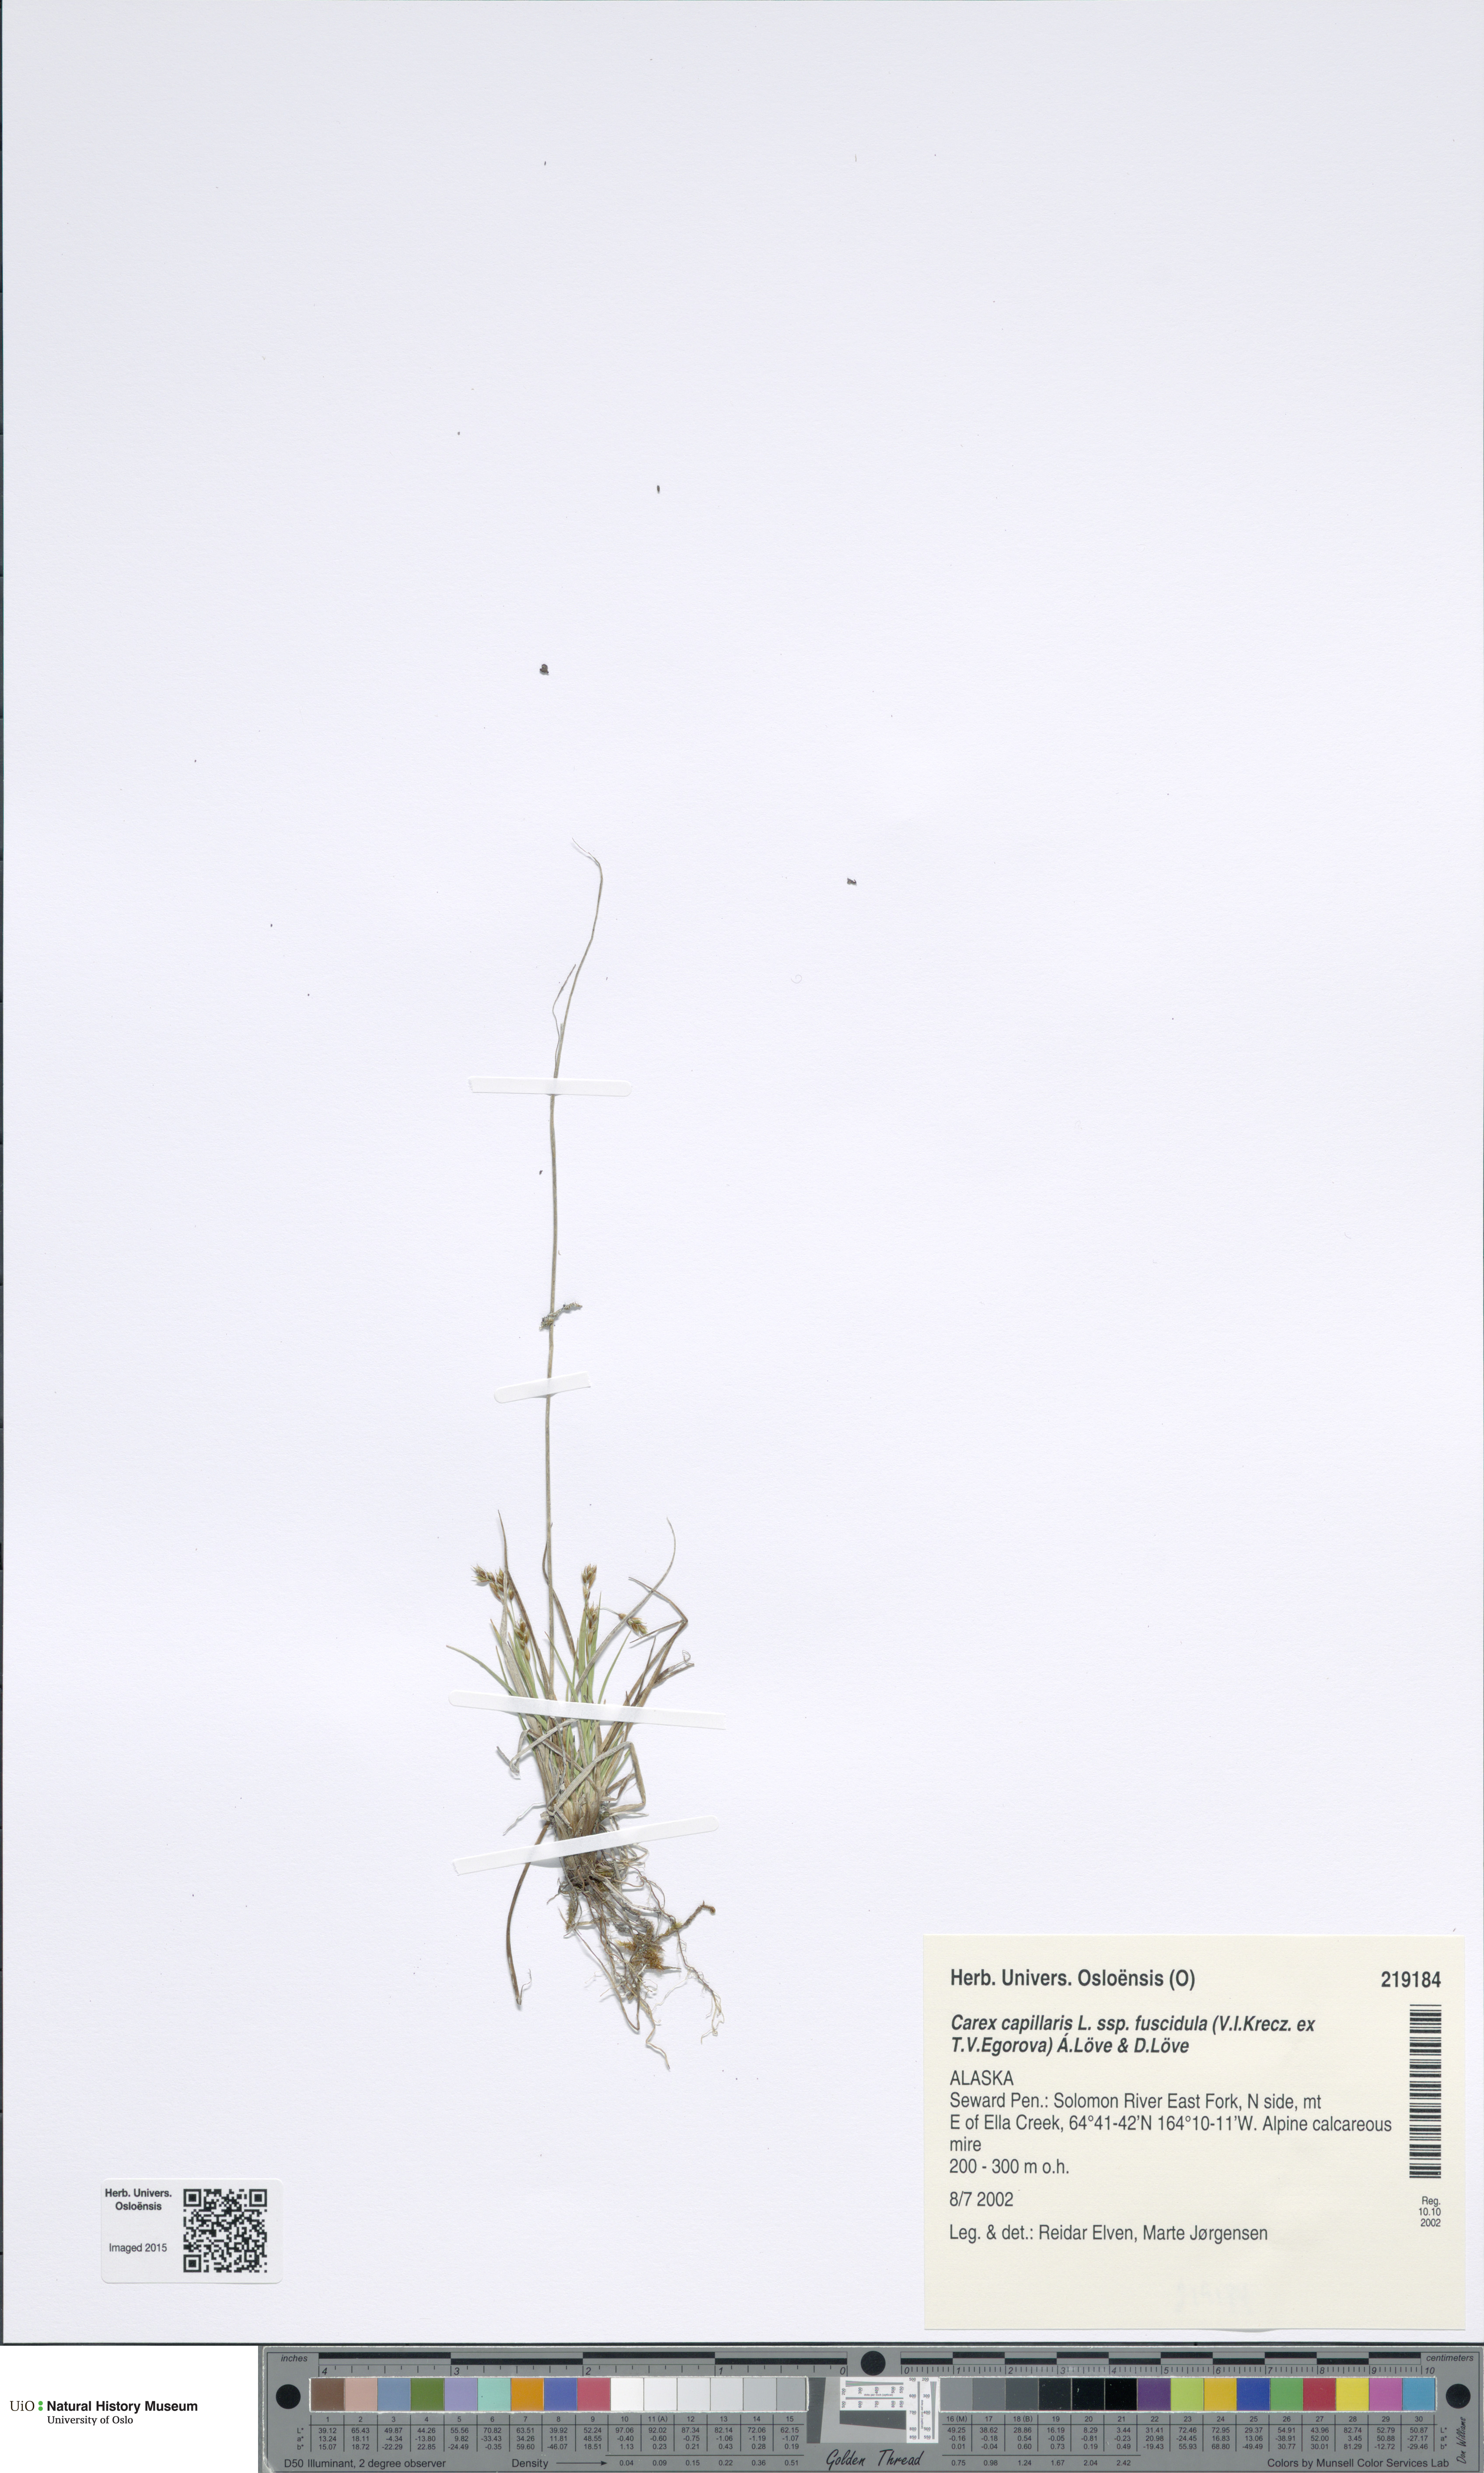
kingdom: Plantae
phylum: Tracheophyta
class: Liliopsida
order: Poales
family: Cyperaceae
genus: Carex
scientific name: Carex capillaris
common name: Hair sedge
